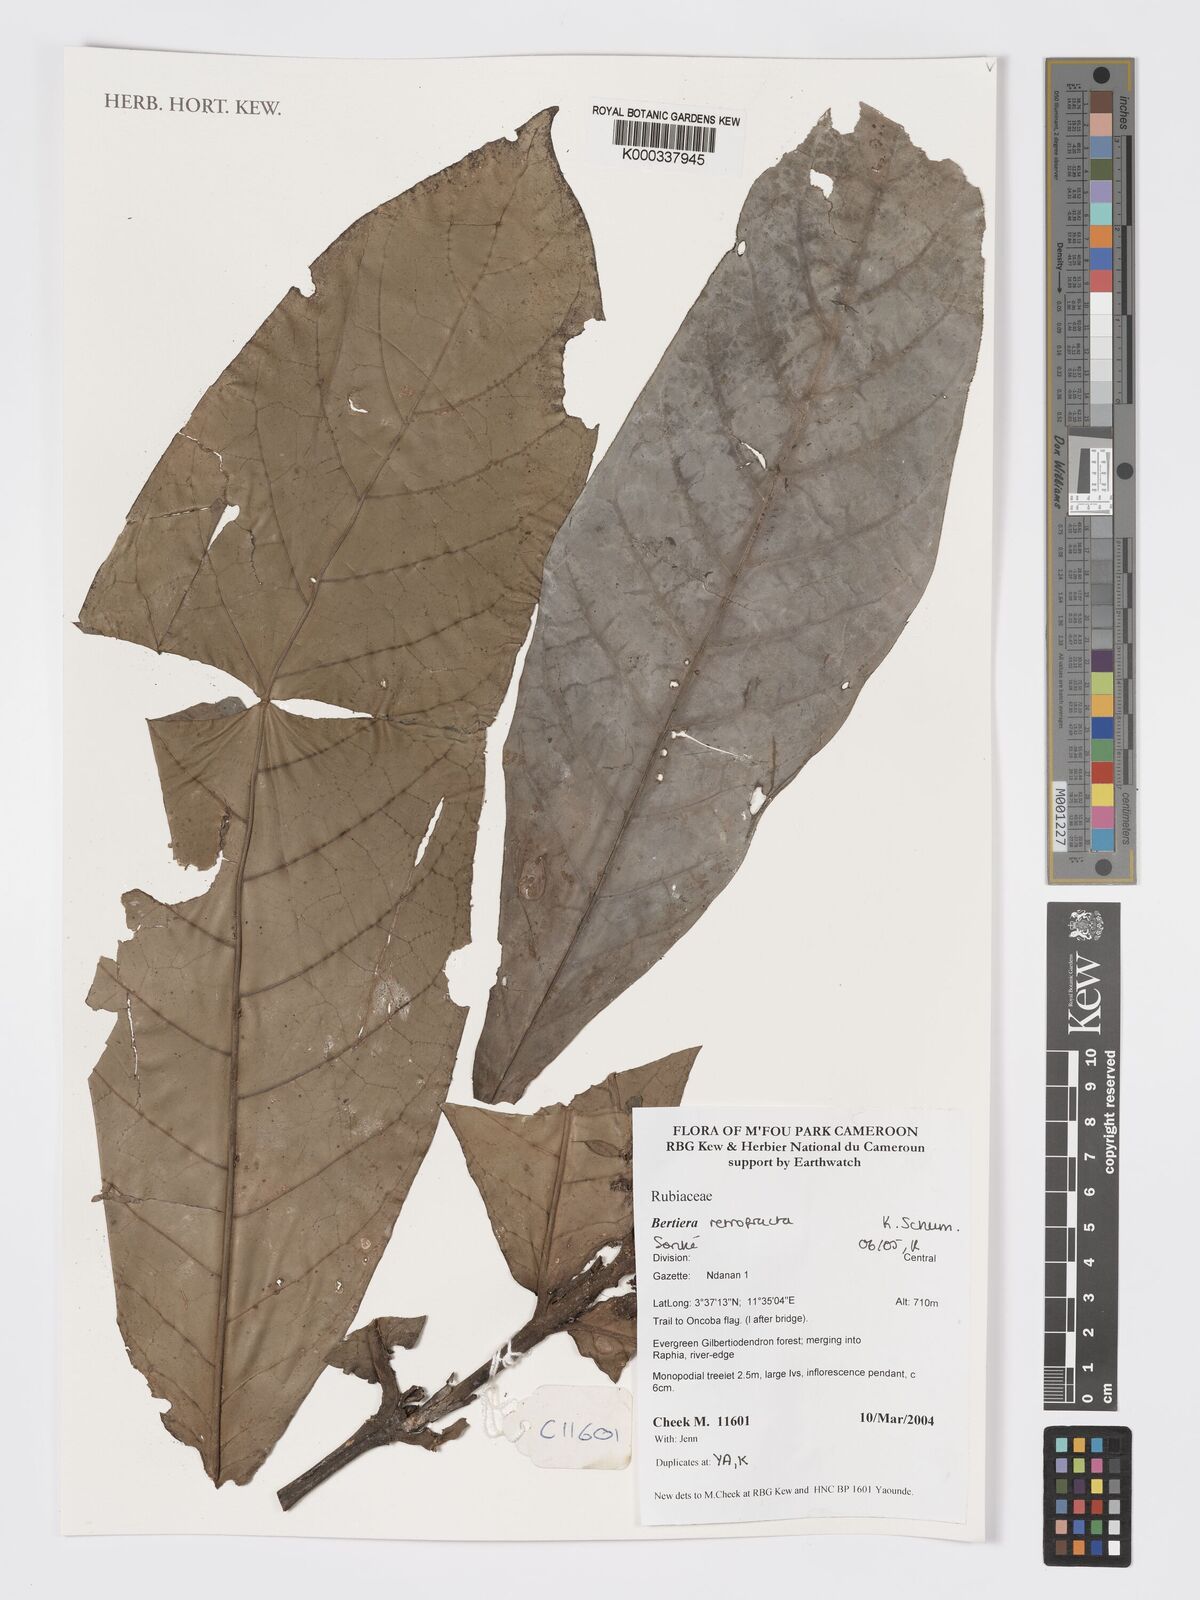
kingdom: Plantae
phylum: Tracheophyta
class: Magnoliopsida
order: Gentianales
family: Rubiaceae
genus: Bertiera
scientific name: Bertiera retrofracta
